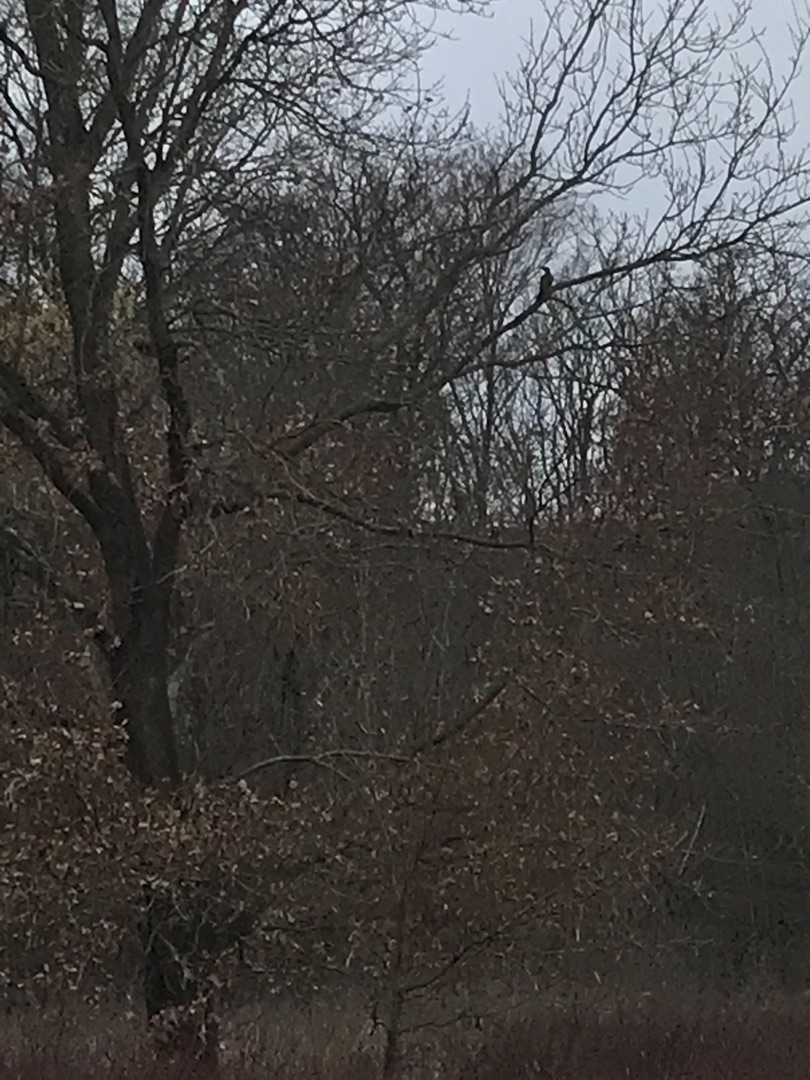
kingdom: Animalia
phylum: Chordata
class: Aves
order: Piciformes
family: Picidae
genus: Picus
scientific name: Picus viridis
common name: Grønspætte
